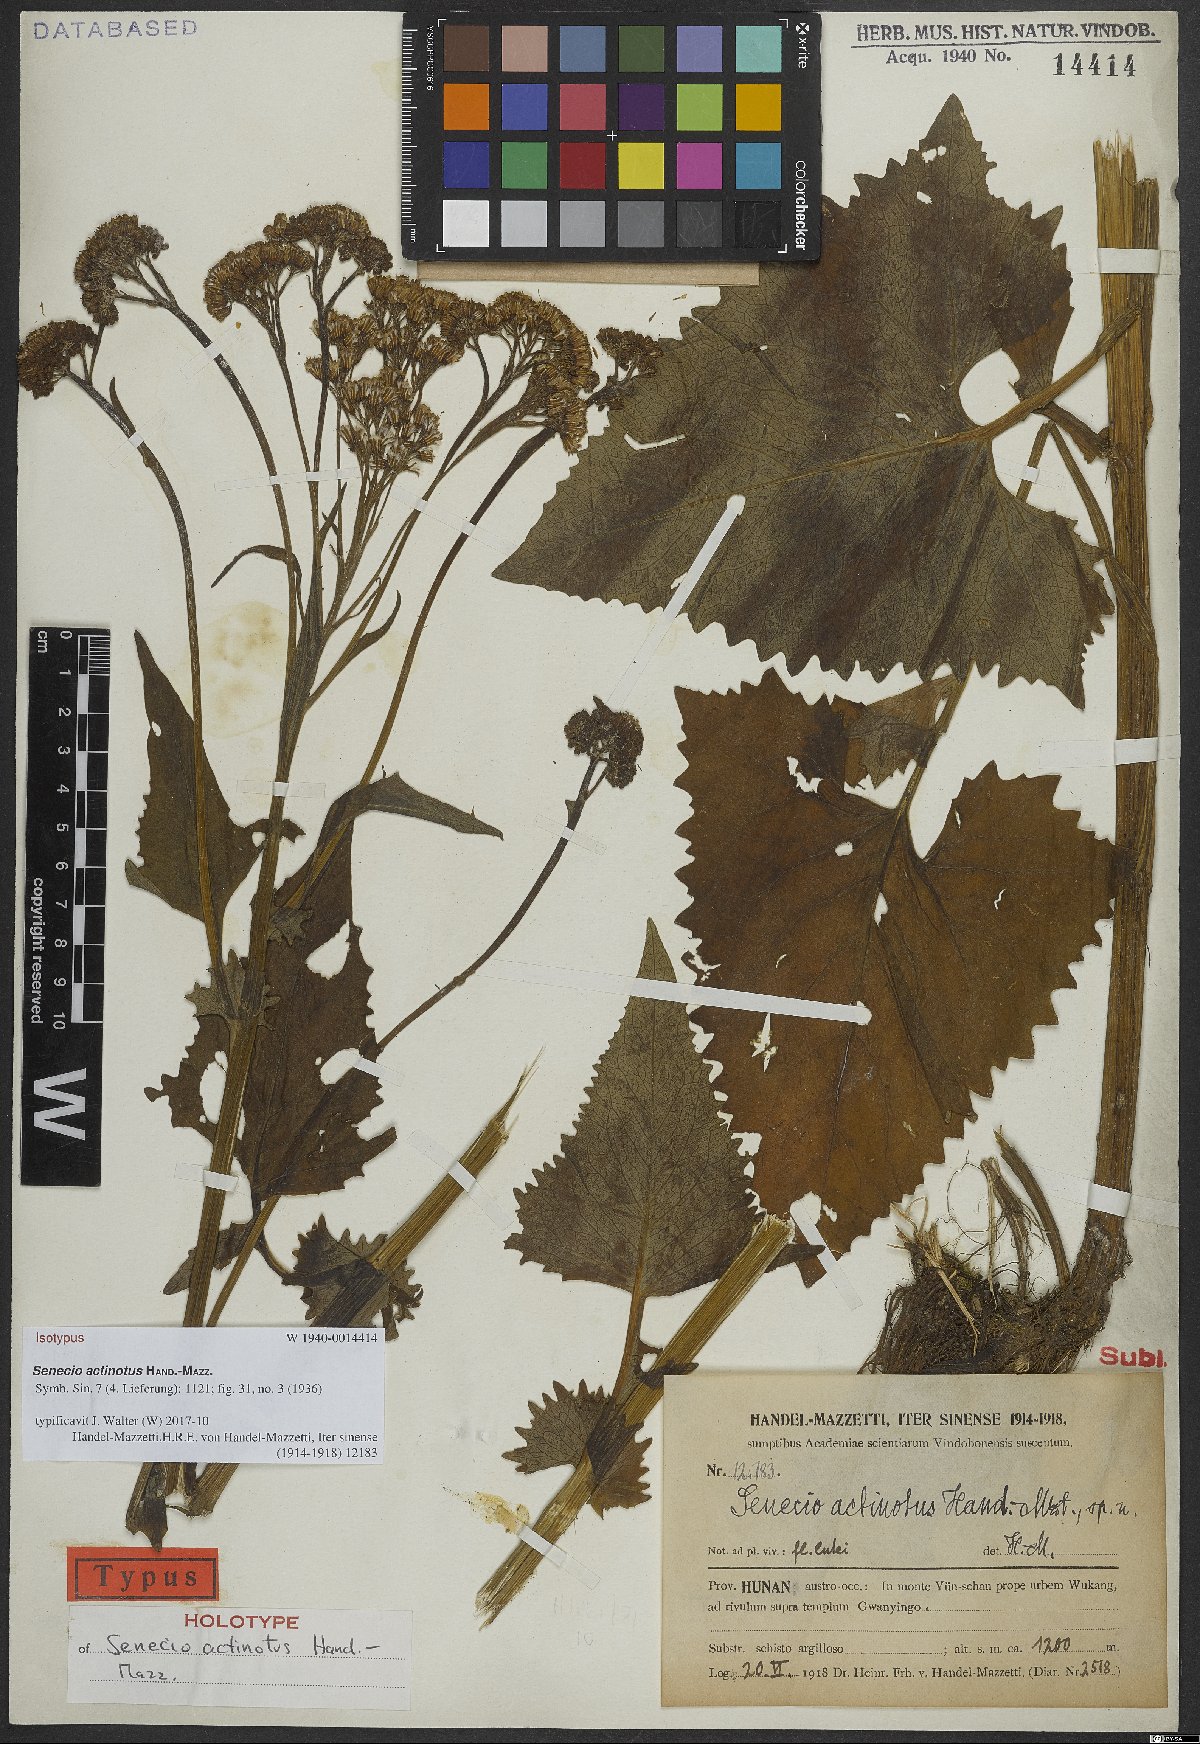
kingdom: Plantae
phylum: Tracheophyta
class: Magnoliopsida
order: Asterales
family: Asteraceae
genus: Senecio
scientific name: Senecio actinotus
